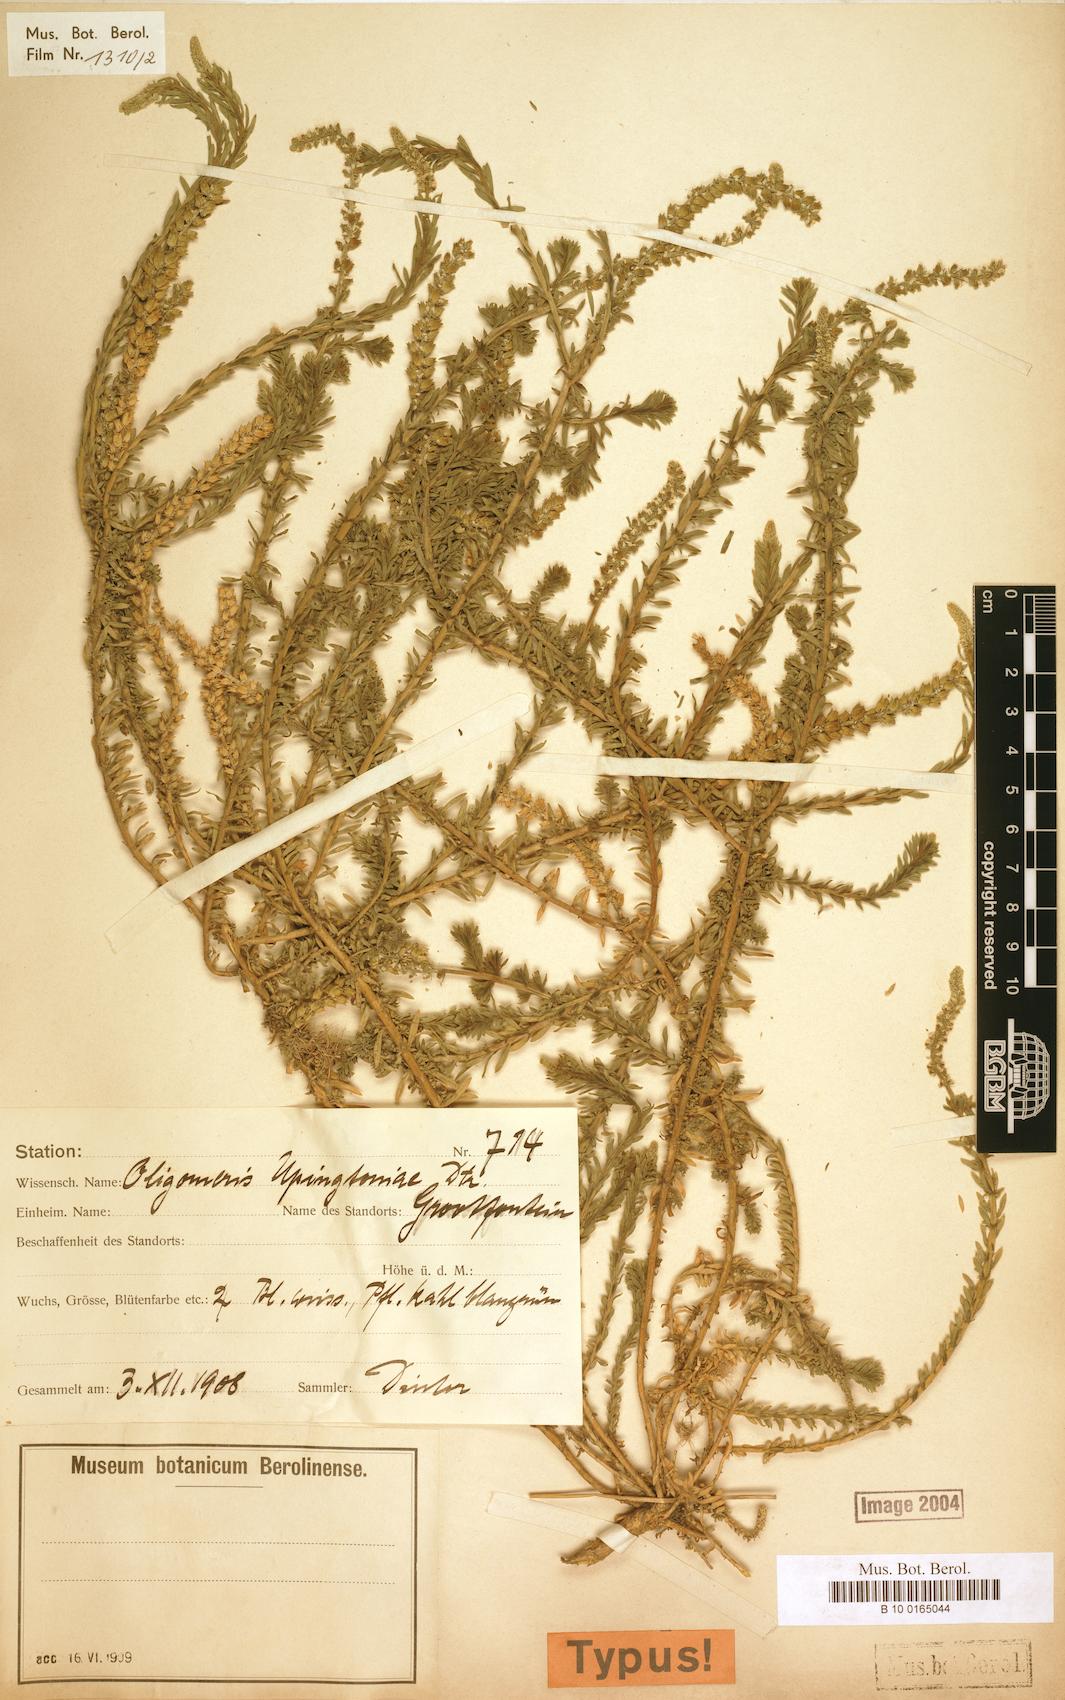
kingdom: Plantae
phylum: Tracheophyta
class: Magnoliopsida
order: Brassicales
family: Resedaceae
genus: Oligomeris
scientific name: Oligomeris dipetala
